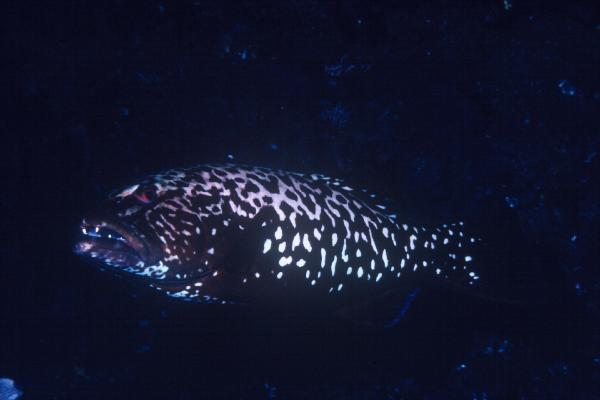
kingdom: Animalia
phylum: Chordata
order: Perciformes
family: Serranidae
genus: Plectropomus
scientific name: Plectropomus punctatus
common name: Marbled coralgrouper
